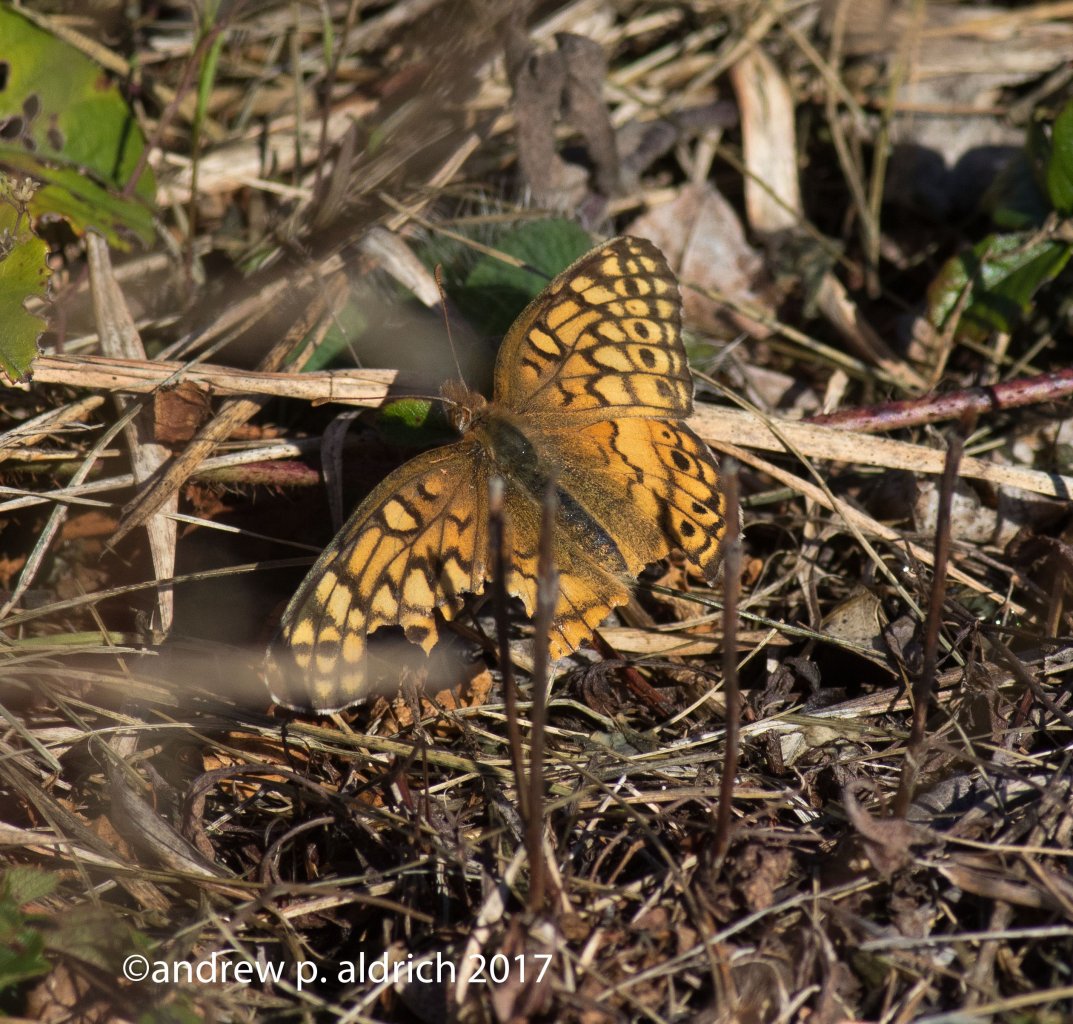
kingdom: Animalia
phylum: Arthropoda
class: Insecta
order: Lepidoptera
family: Nymphalidae
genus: Euptoieta
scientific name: Euptoieta claudia
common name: Variegated Fritillary
